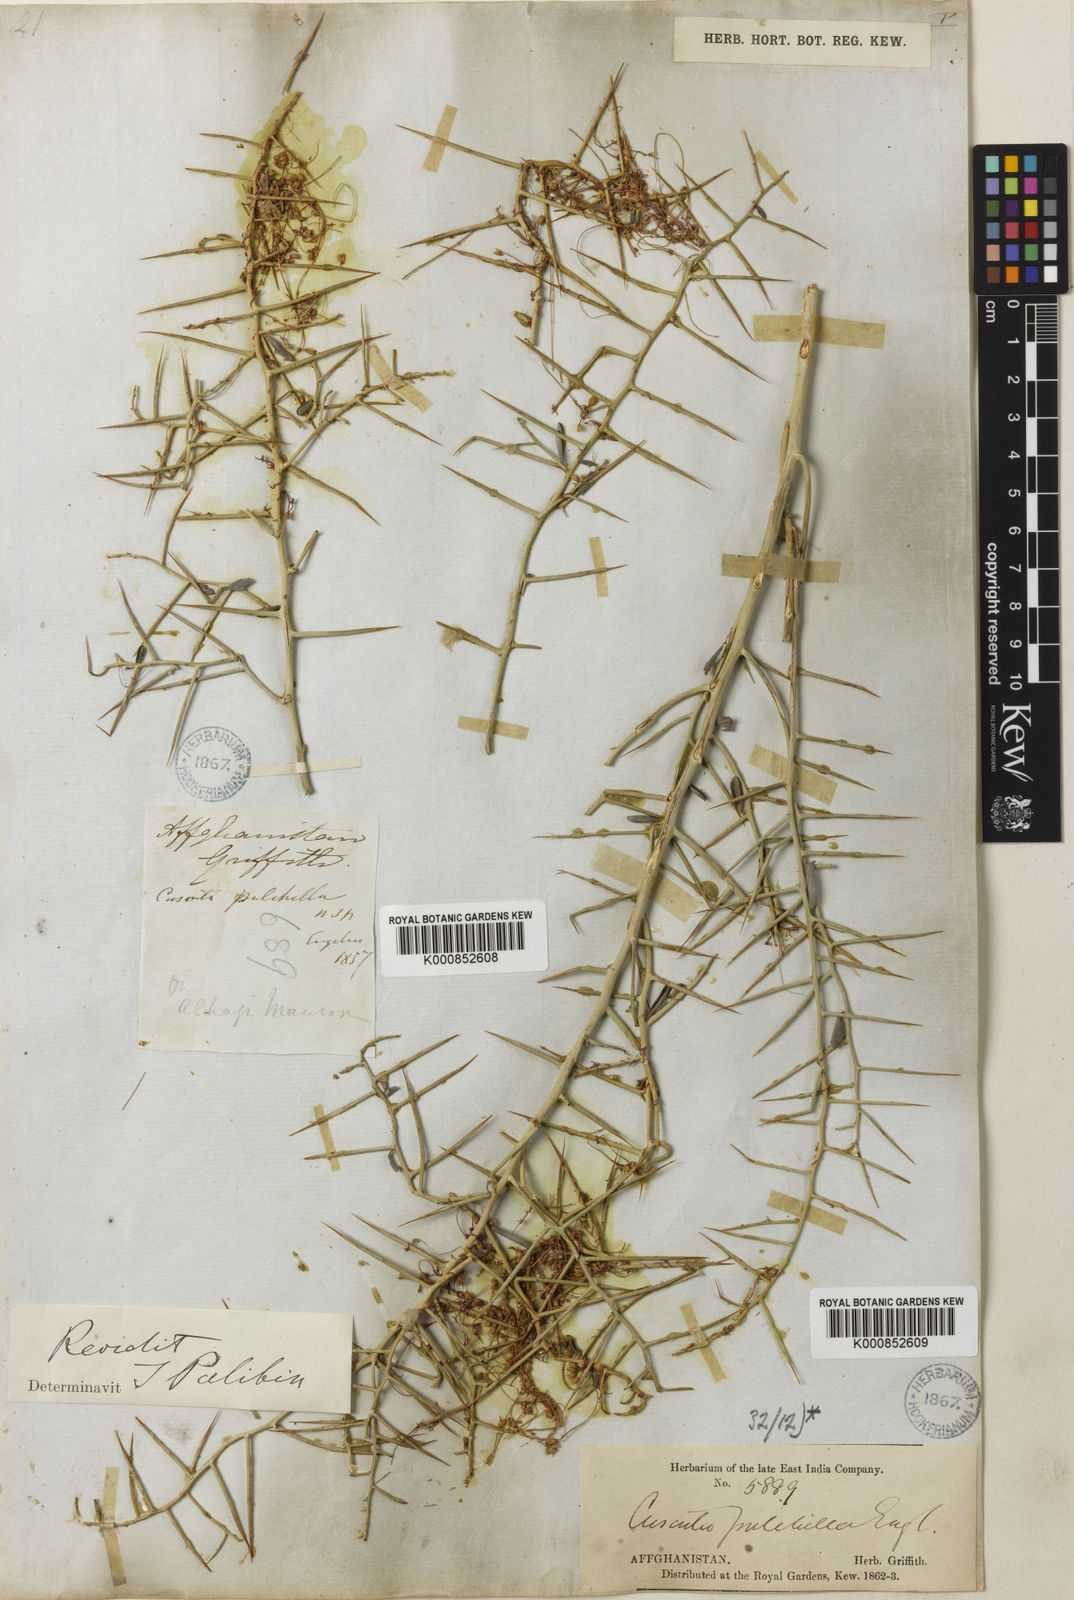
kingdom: Plantae
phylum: Tracheophyta
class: Magnoliopsida
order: Solanales
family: Convolvulaceae
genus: Cuscuta
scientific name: Cuscuta pulchella
